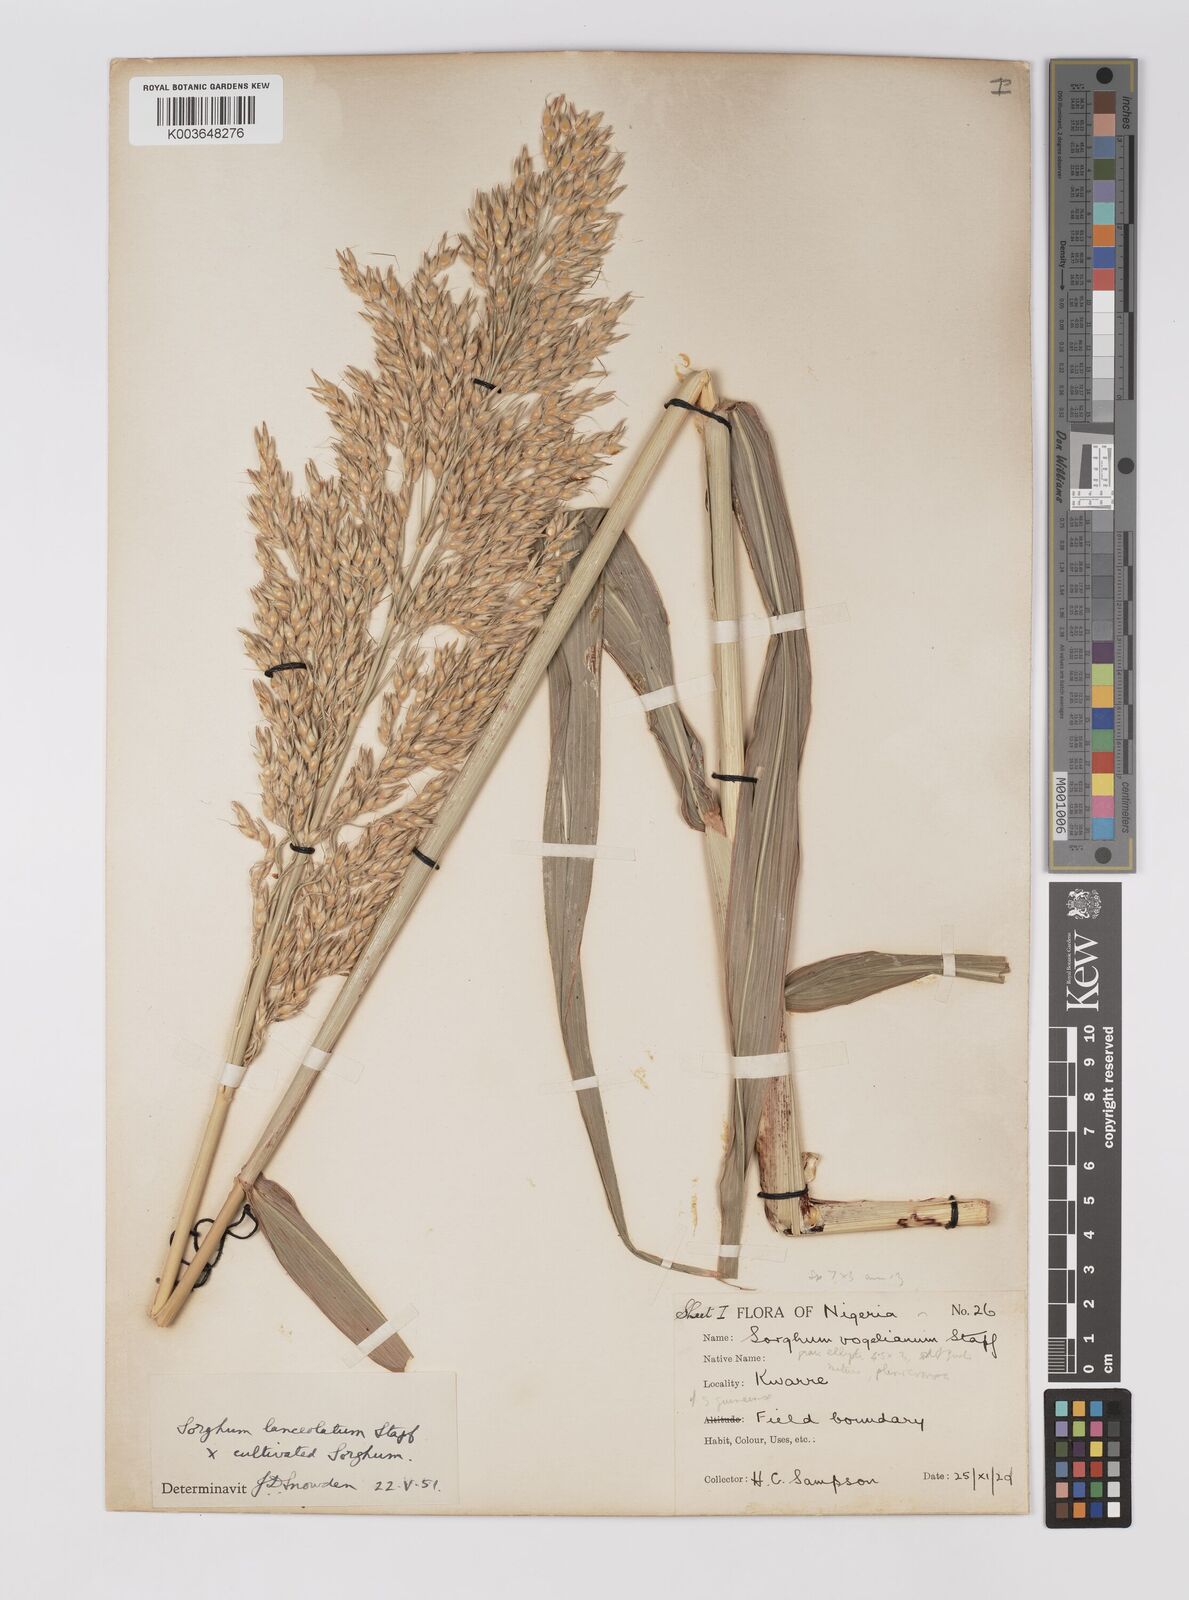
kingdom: Plantae
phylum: Tracheophyta
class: Liliopsida
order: Poales
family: Poaceae
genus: Sorghum
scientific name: Sorghum drummondii
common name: Sudangrass
